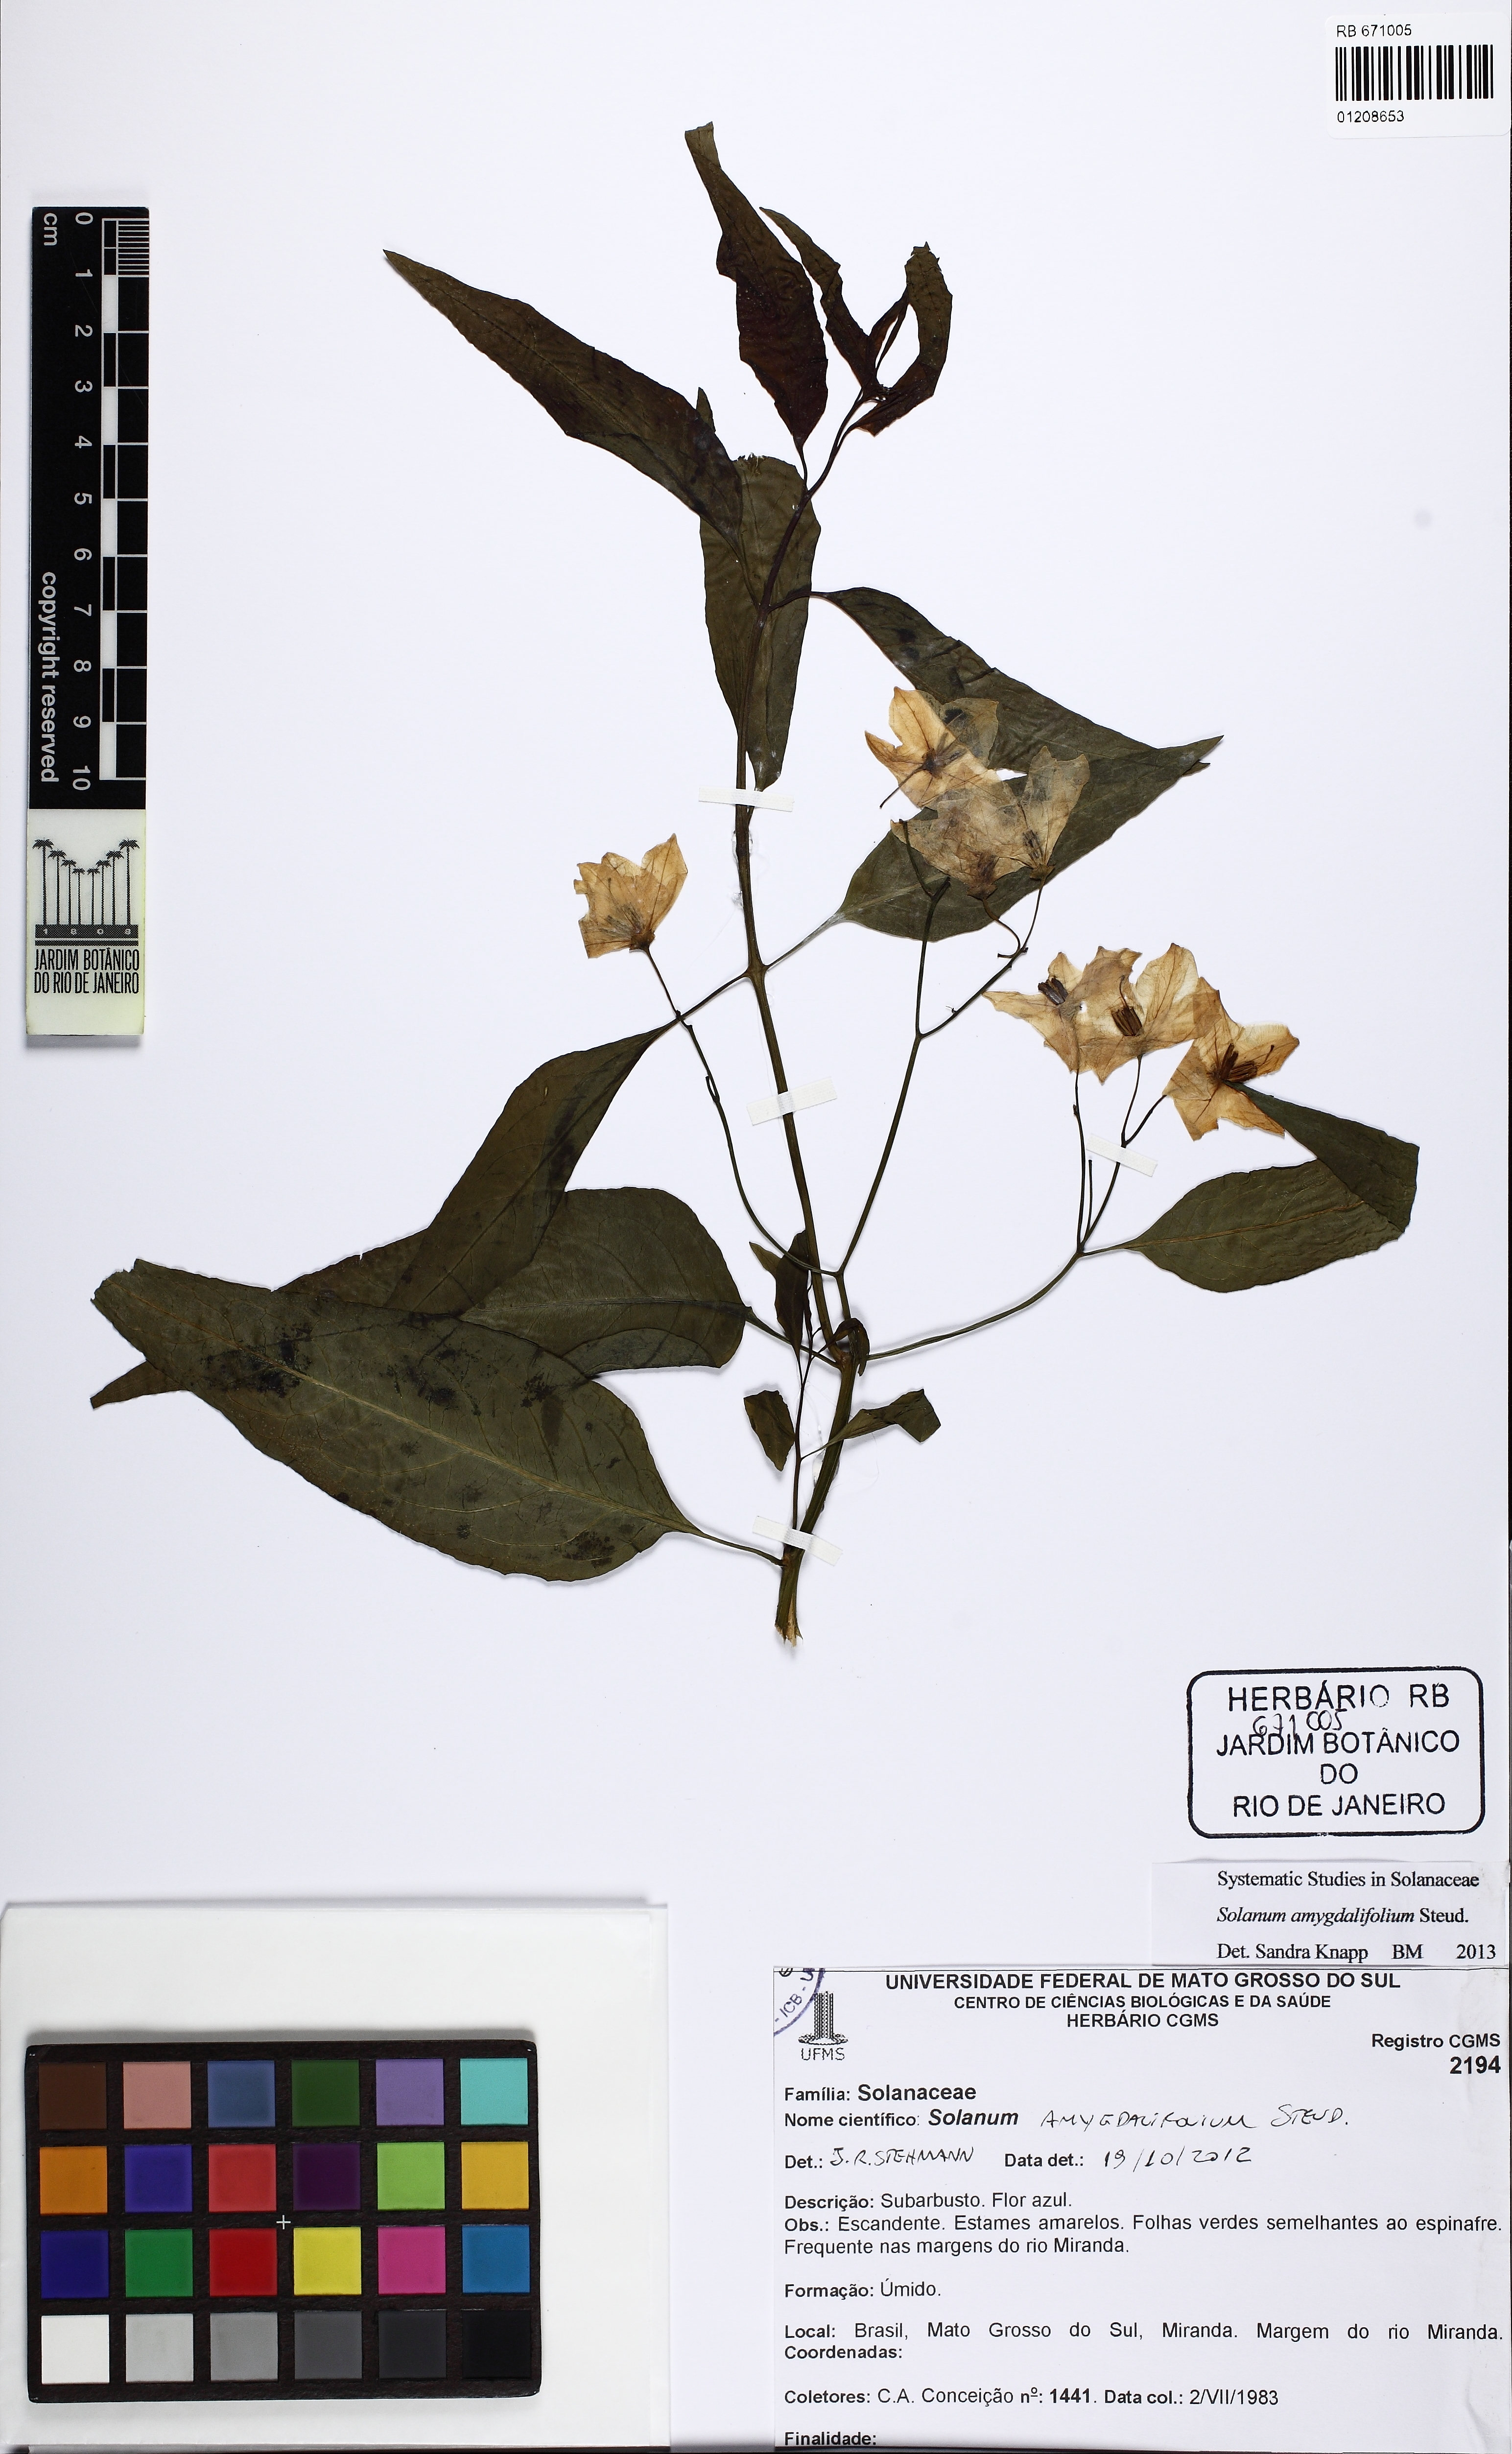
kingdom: Plantae
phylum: Tracheophyta
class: Magnoliopsida
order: Solanales
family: Solanaceae
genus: Solanum
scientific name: Solanum amygdalifolium
